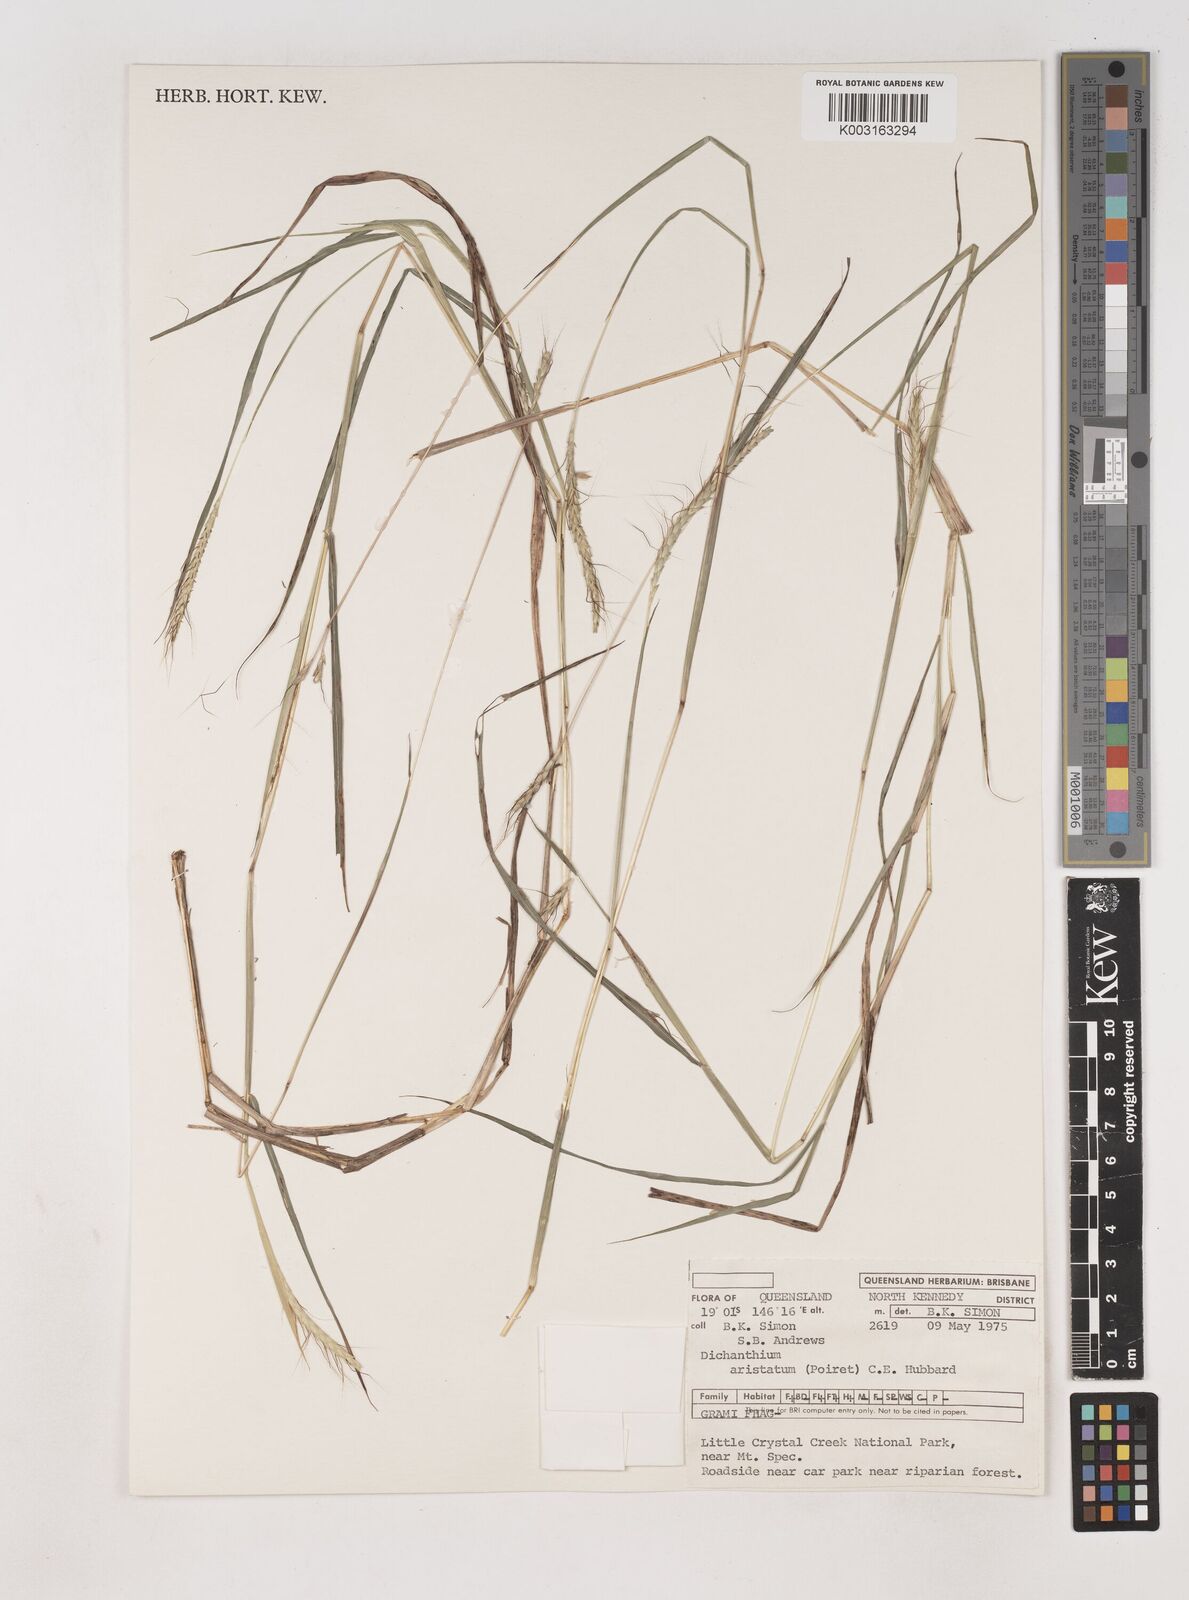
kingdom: Plantae
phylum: Tracheophyta
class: Liliopsida
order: Poales
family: Poaceae
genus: Dichanthium
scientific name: Dichanthium aristatum
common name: Angleton bluestem
